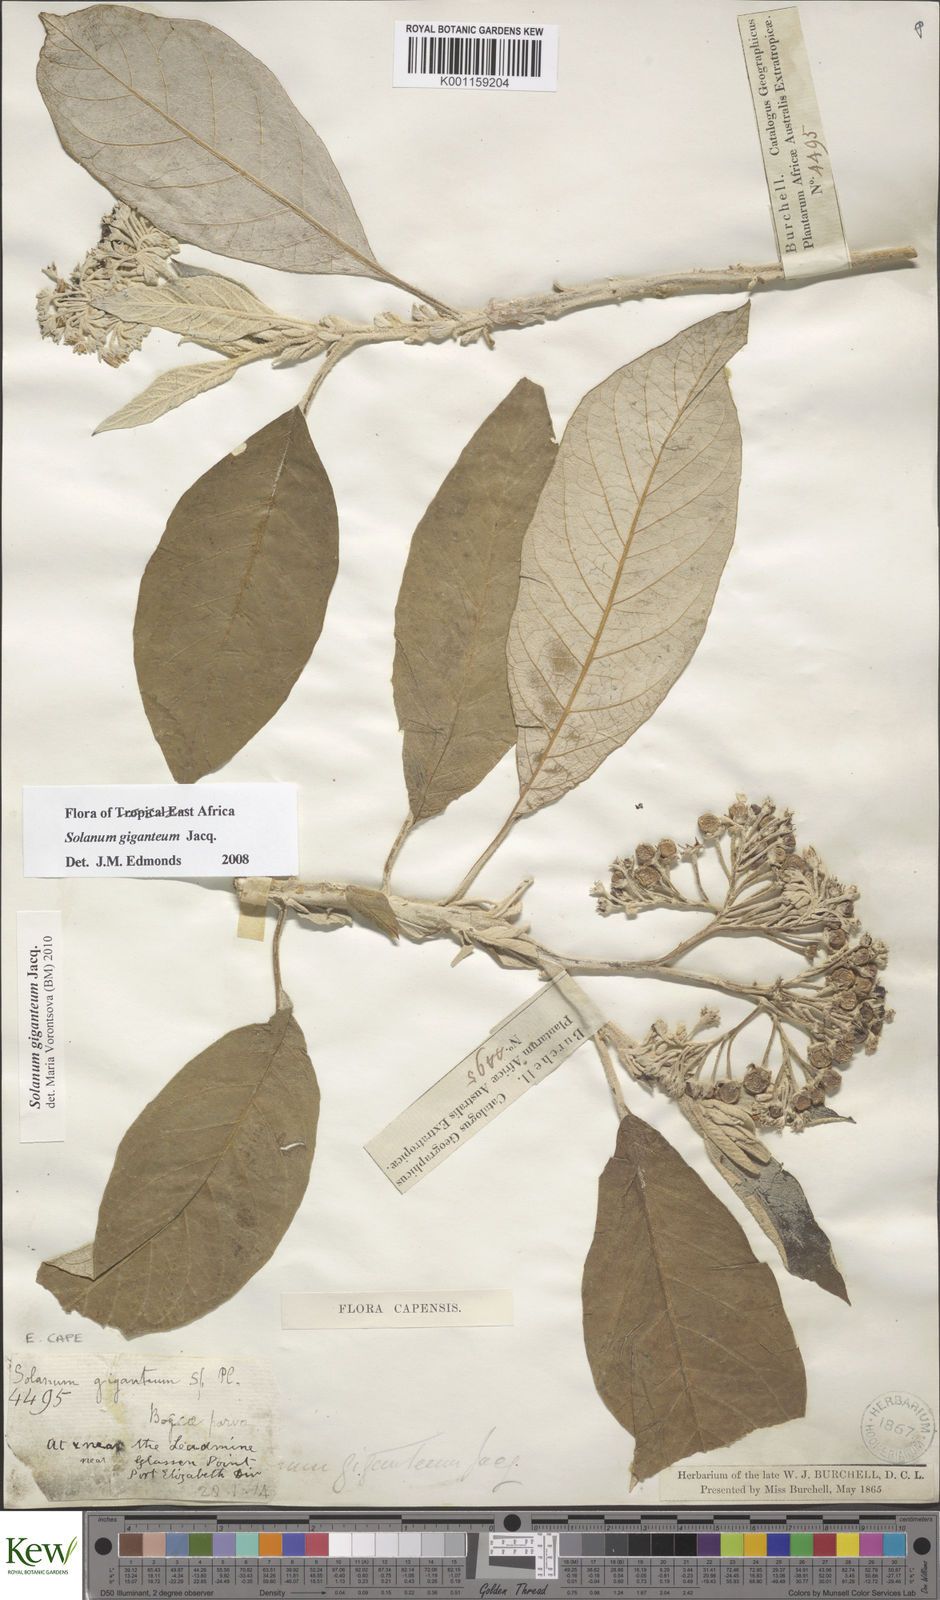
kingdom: Plantae
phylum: Tracheophyta
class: Magnoliopsida
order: Solanales
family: Solanaceae
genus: Solanum
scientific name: Solanum giganteum
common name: Healing-leaf-tree
